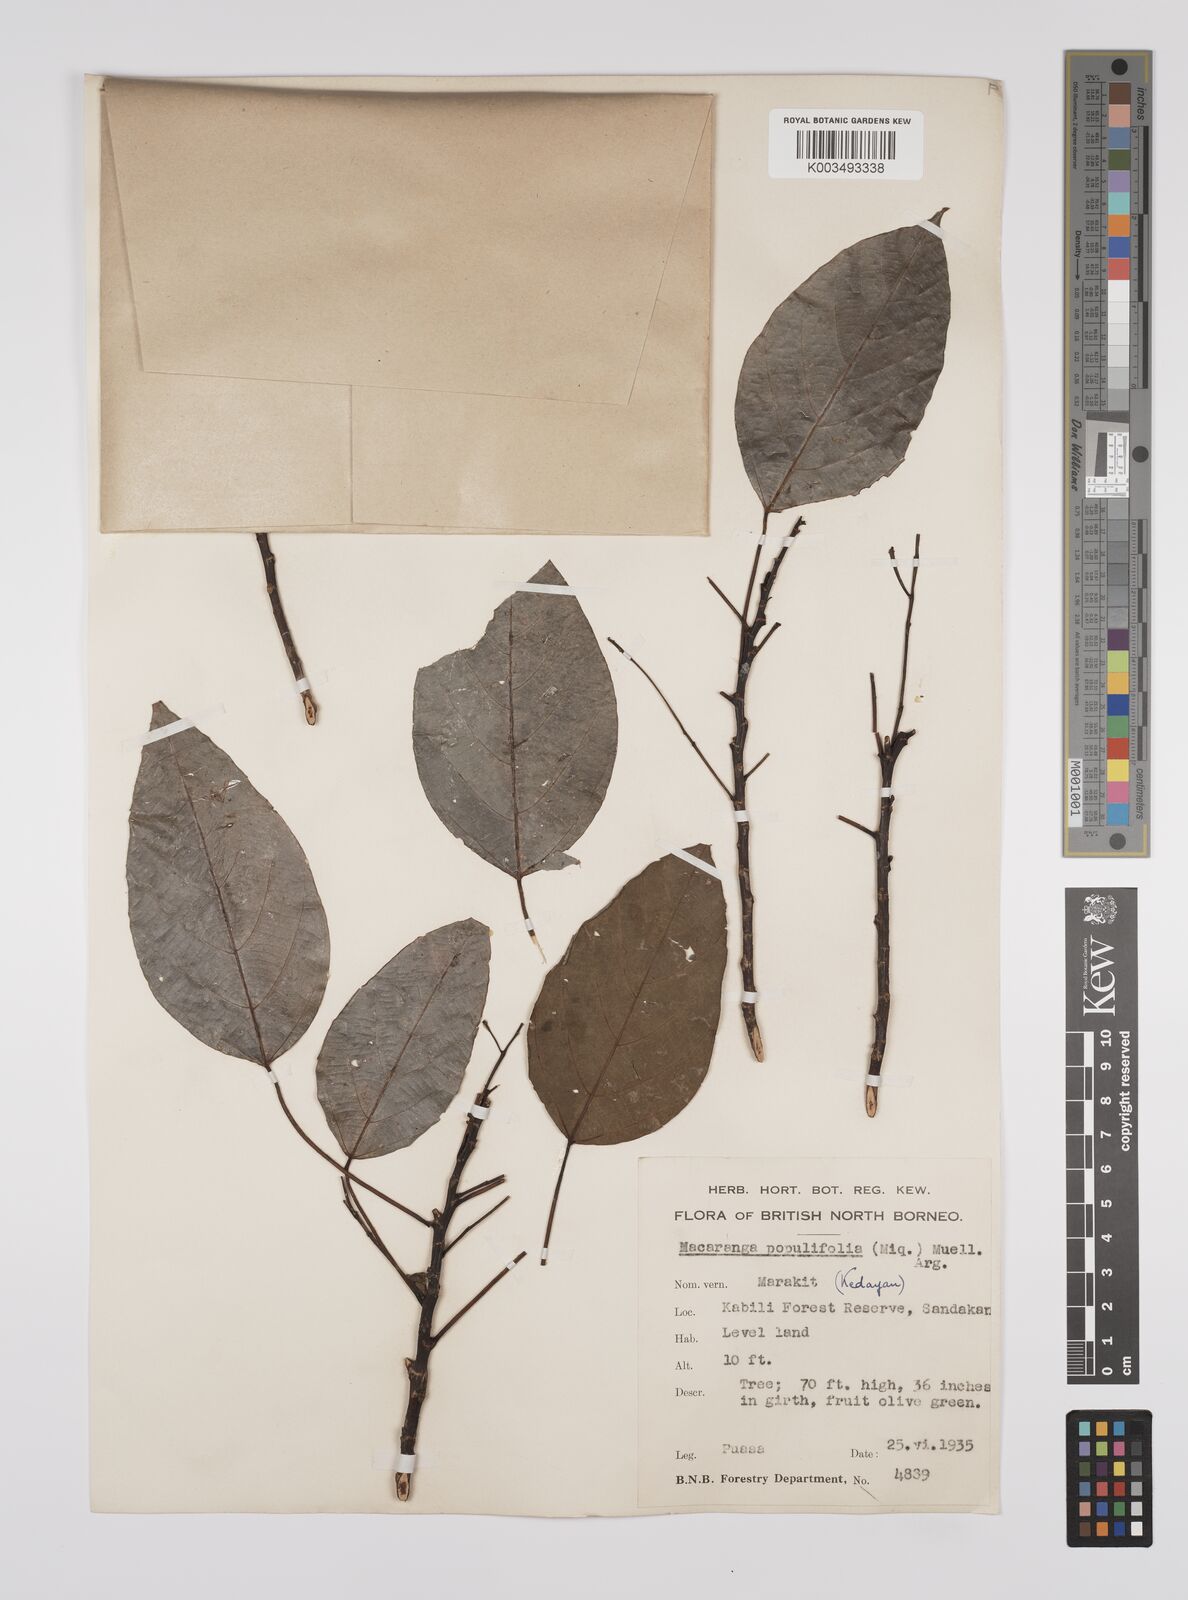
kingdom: Plantae
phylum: Tracheophyta
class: Magnoliopsida
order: Malpighiales
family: Euphorbiaceae
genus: Macaranga
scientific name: Macaranga conifera
